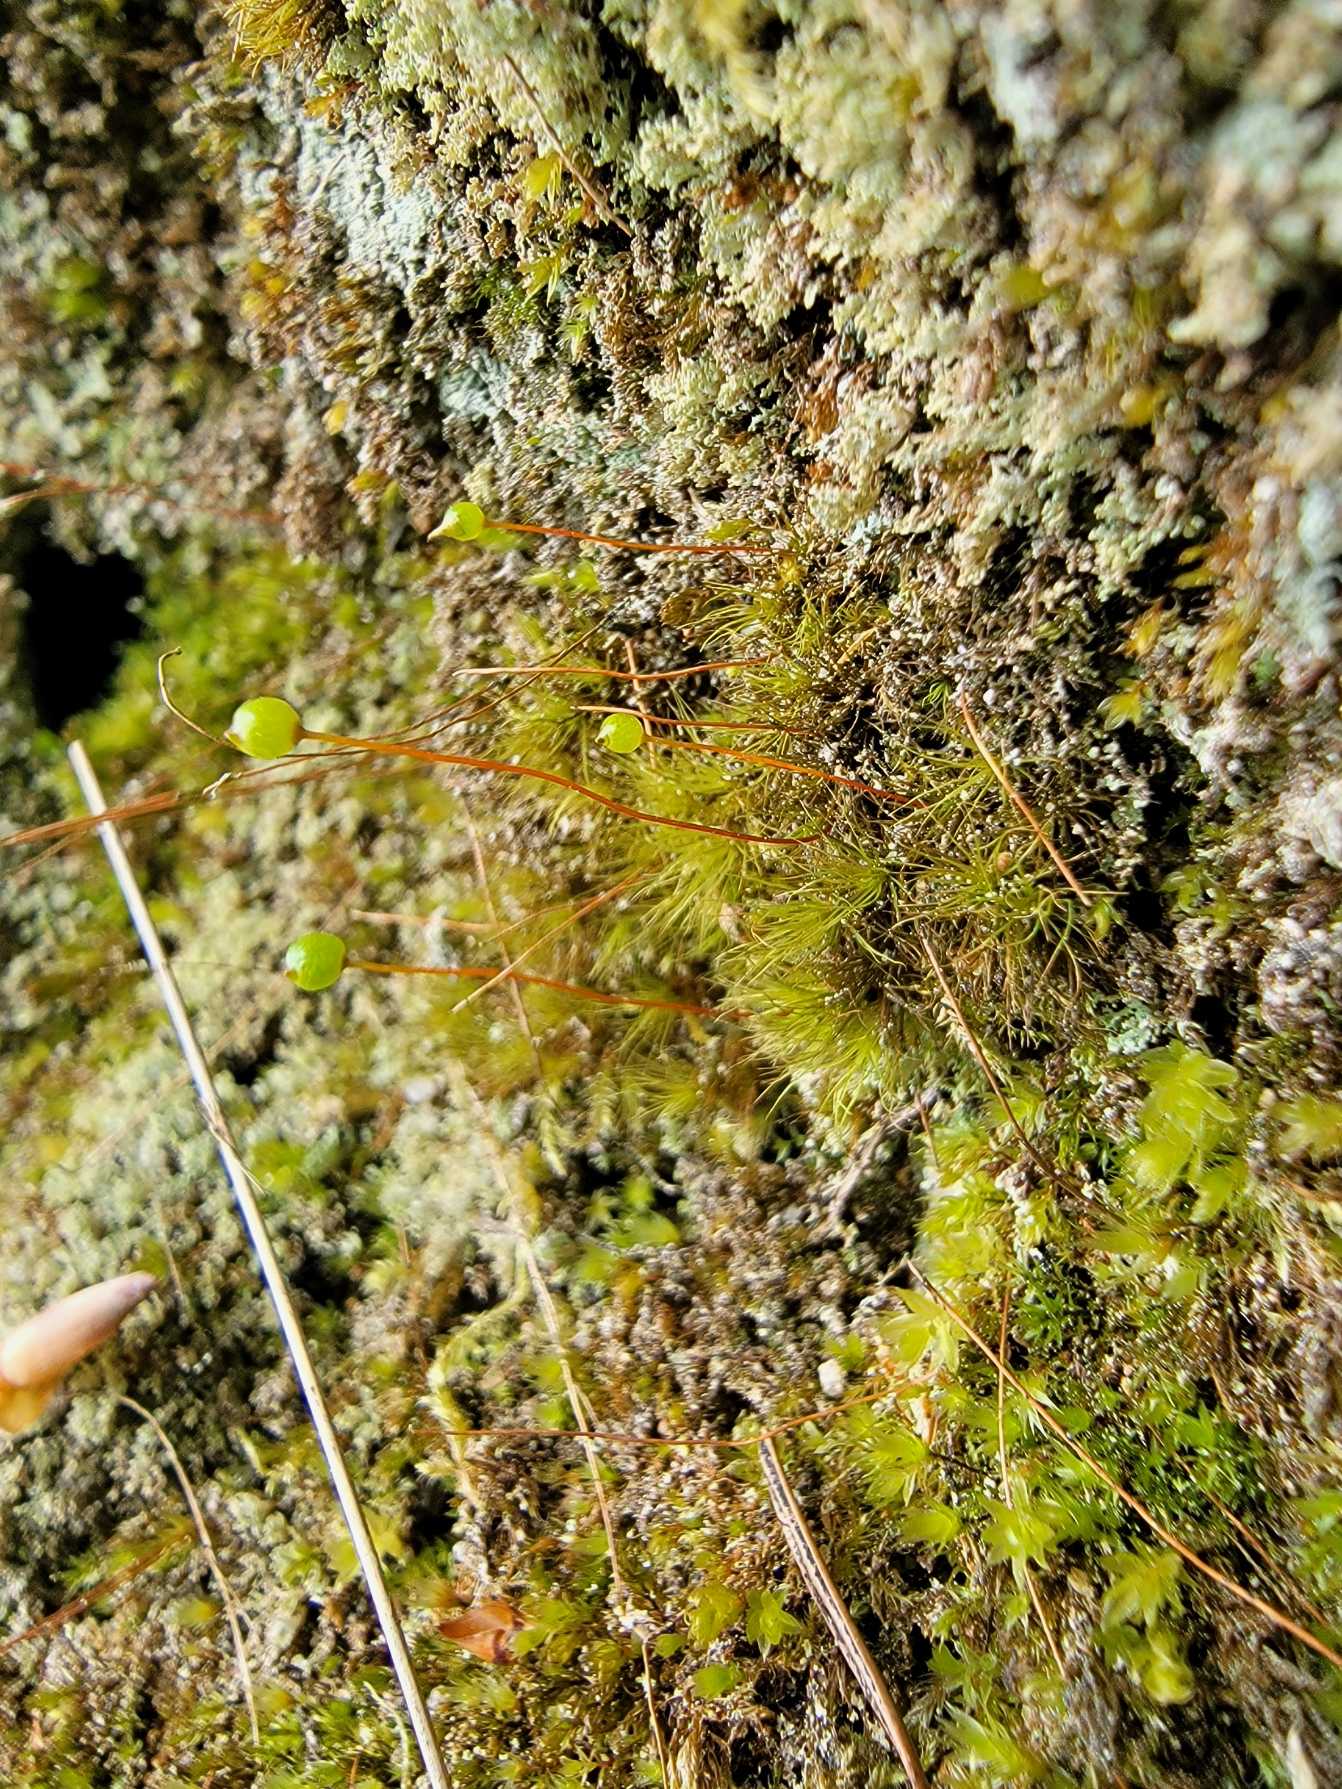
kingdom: Plantae
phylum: Bryophyta
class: Bryopsida
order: Bartramiales
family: Bartramiaceae
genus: Bartramia
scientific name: Bartramia ithyphylla
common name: Blågrøn kuglekapsel
